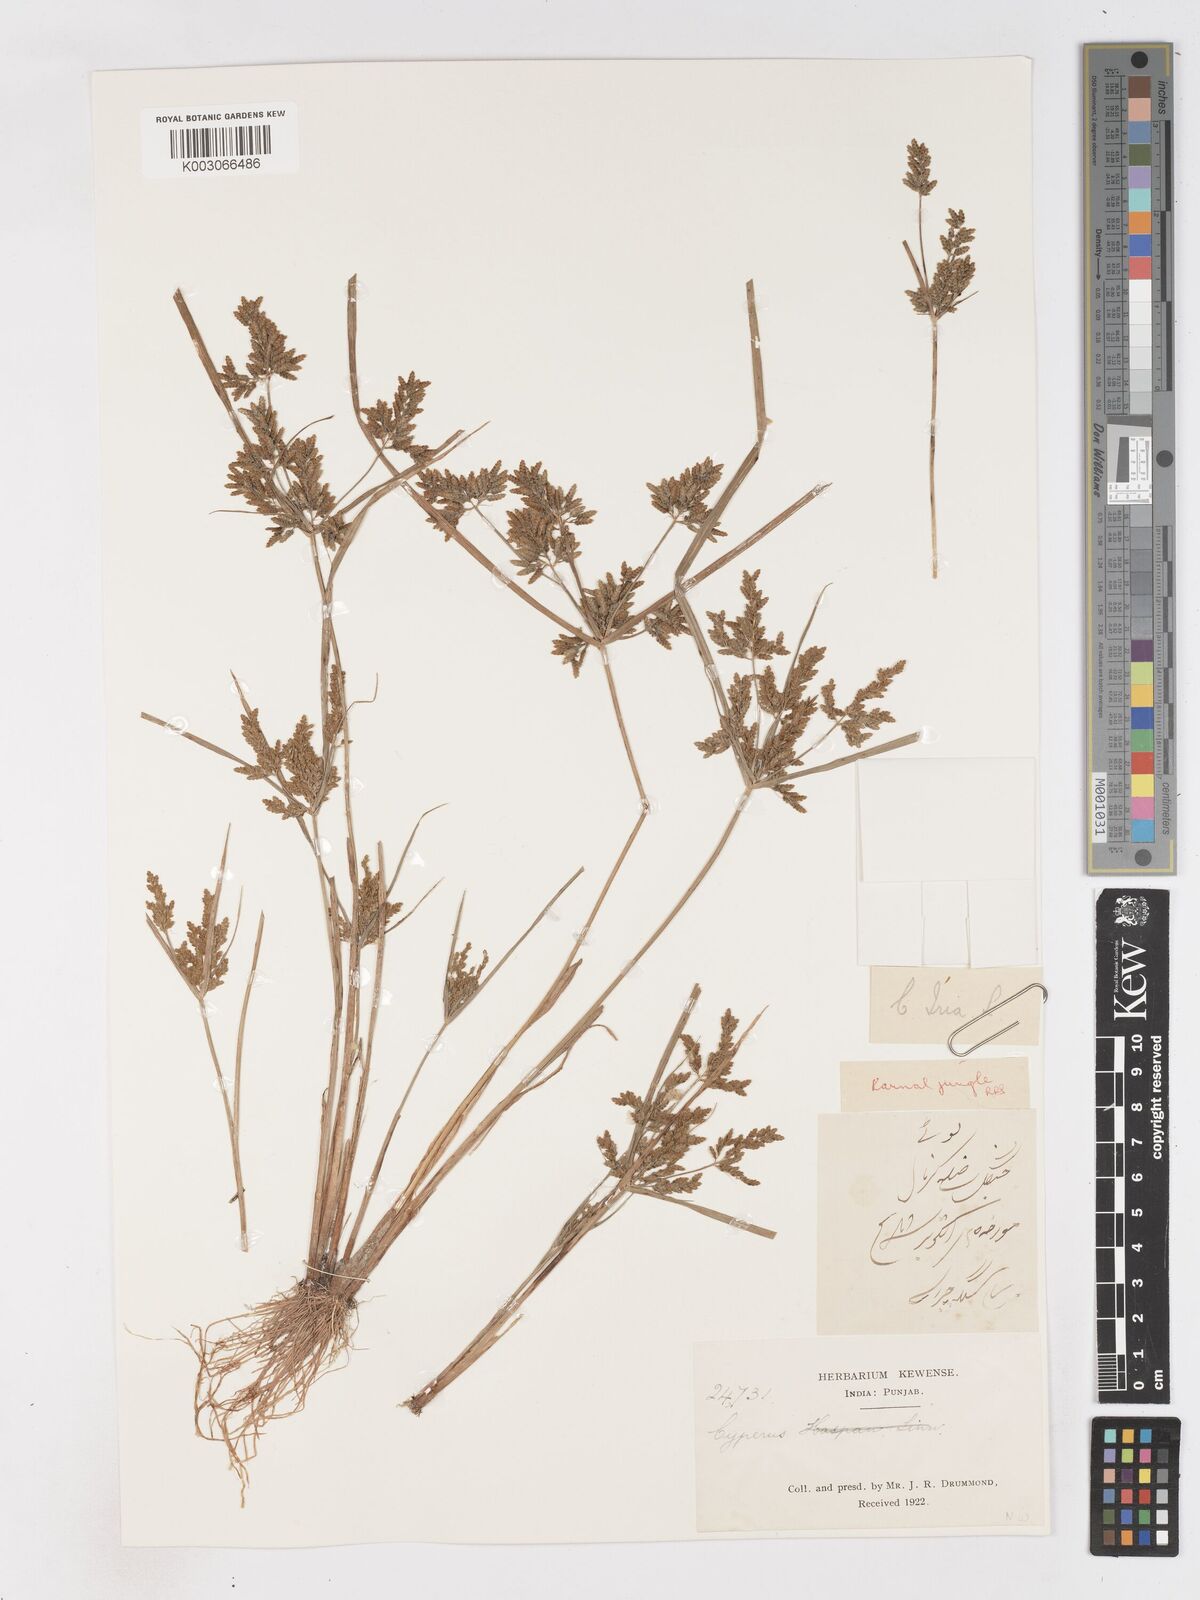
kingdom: Plantae
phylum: Tracheophyta
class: Liliopsida
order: Poales
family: Cyperaceae
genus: Cyperus
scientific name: Cyperus iria
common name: Ricefield flatsedge
